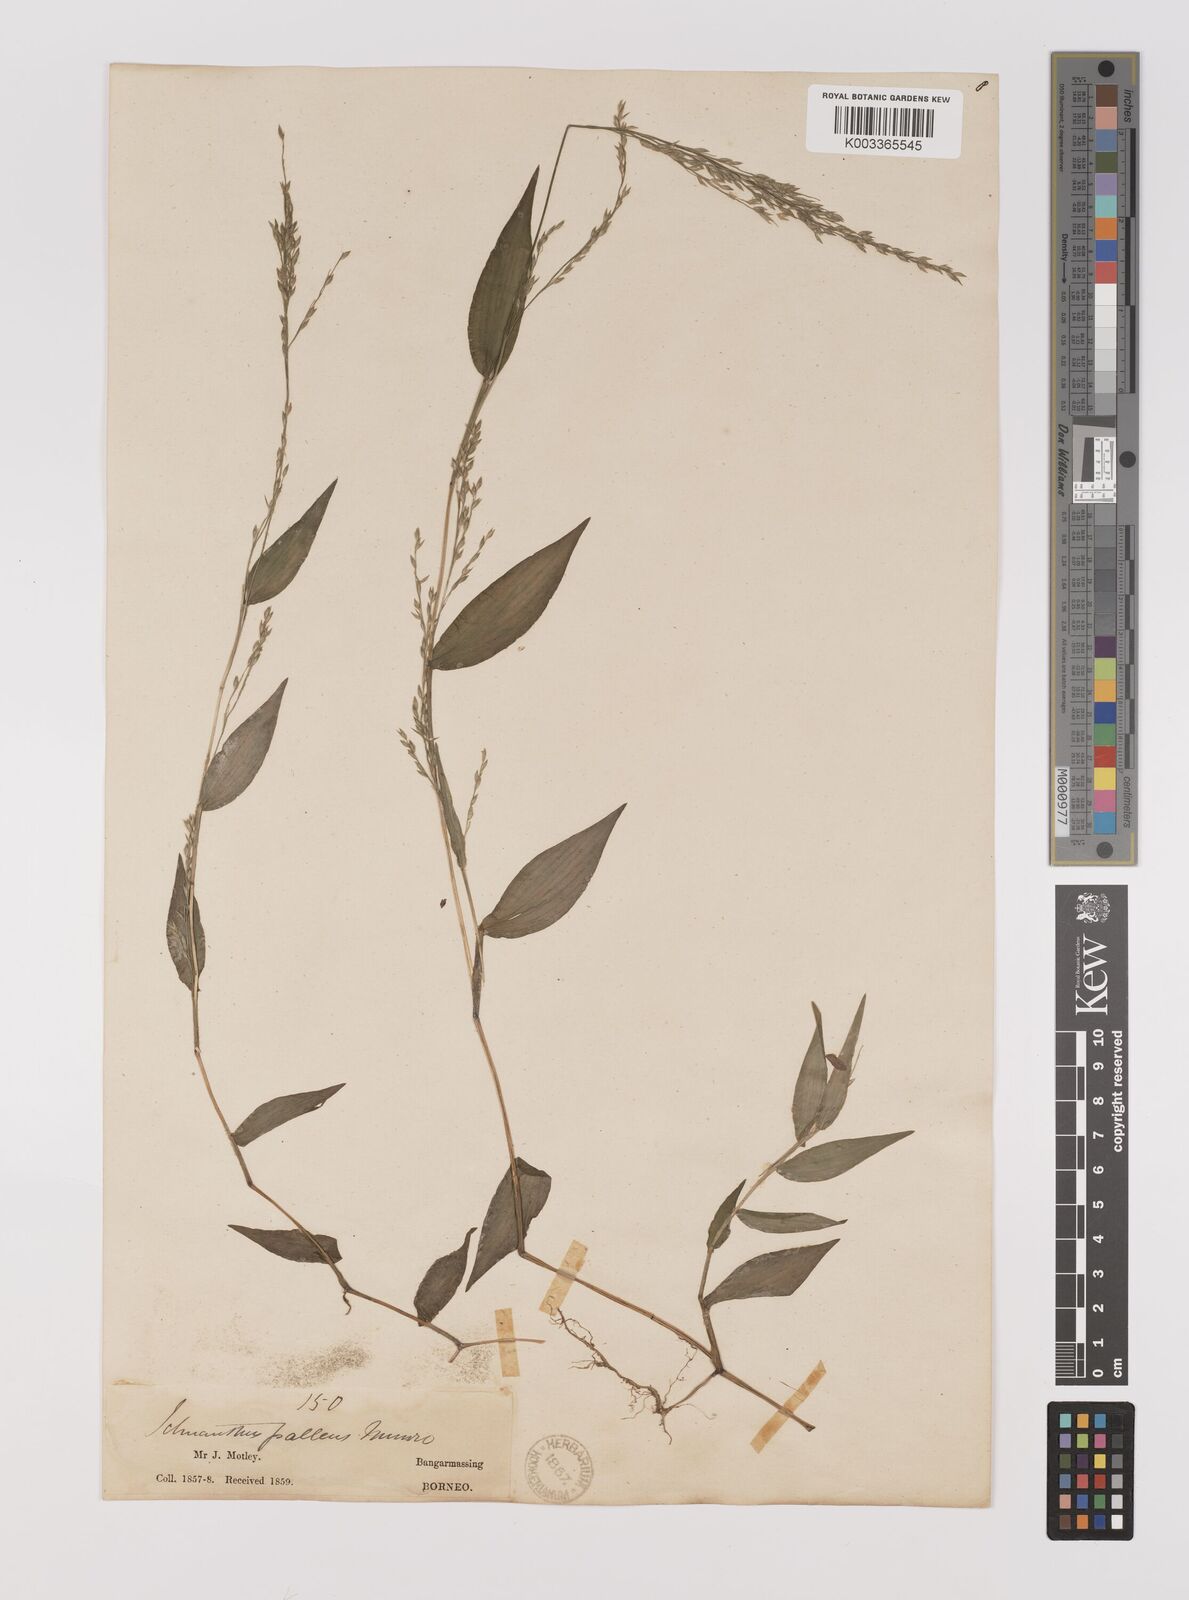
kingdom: Plantae
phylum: Tracheophyta
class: Liliopsida
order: Poales
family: Poaceae
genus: Ichnanthus
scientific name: Ichnanthus pallens
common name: Water grass
